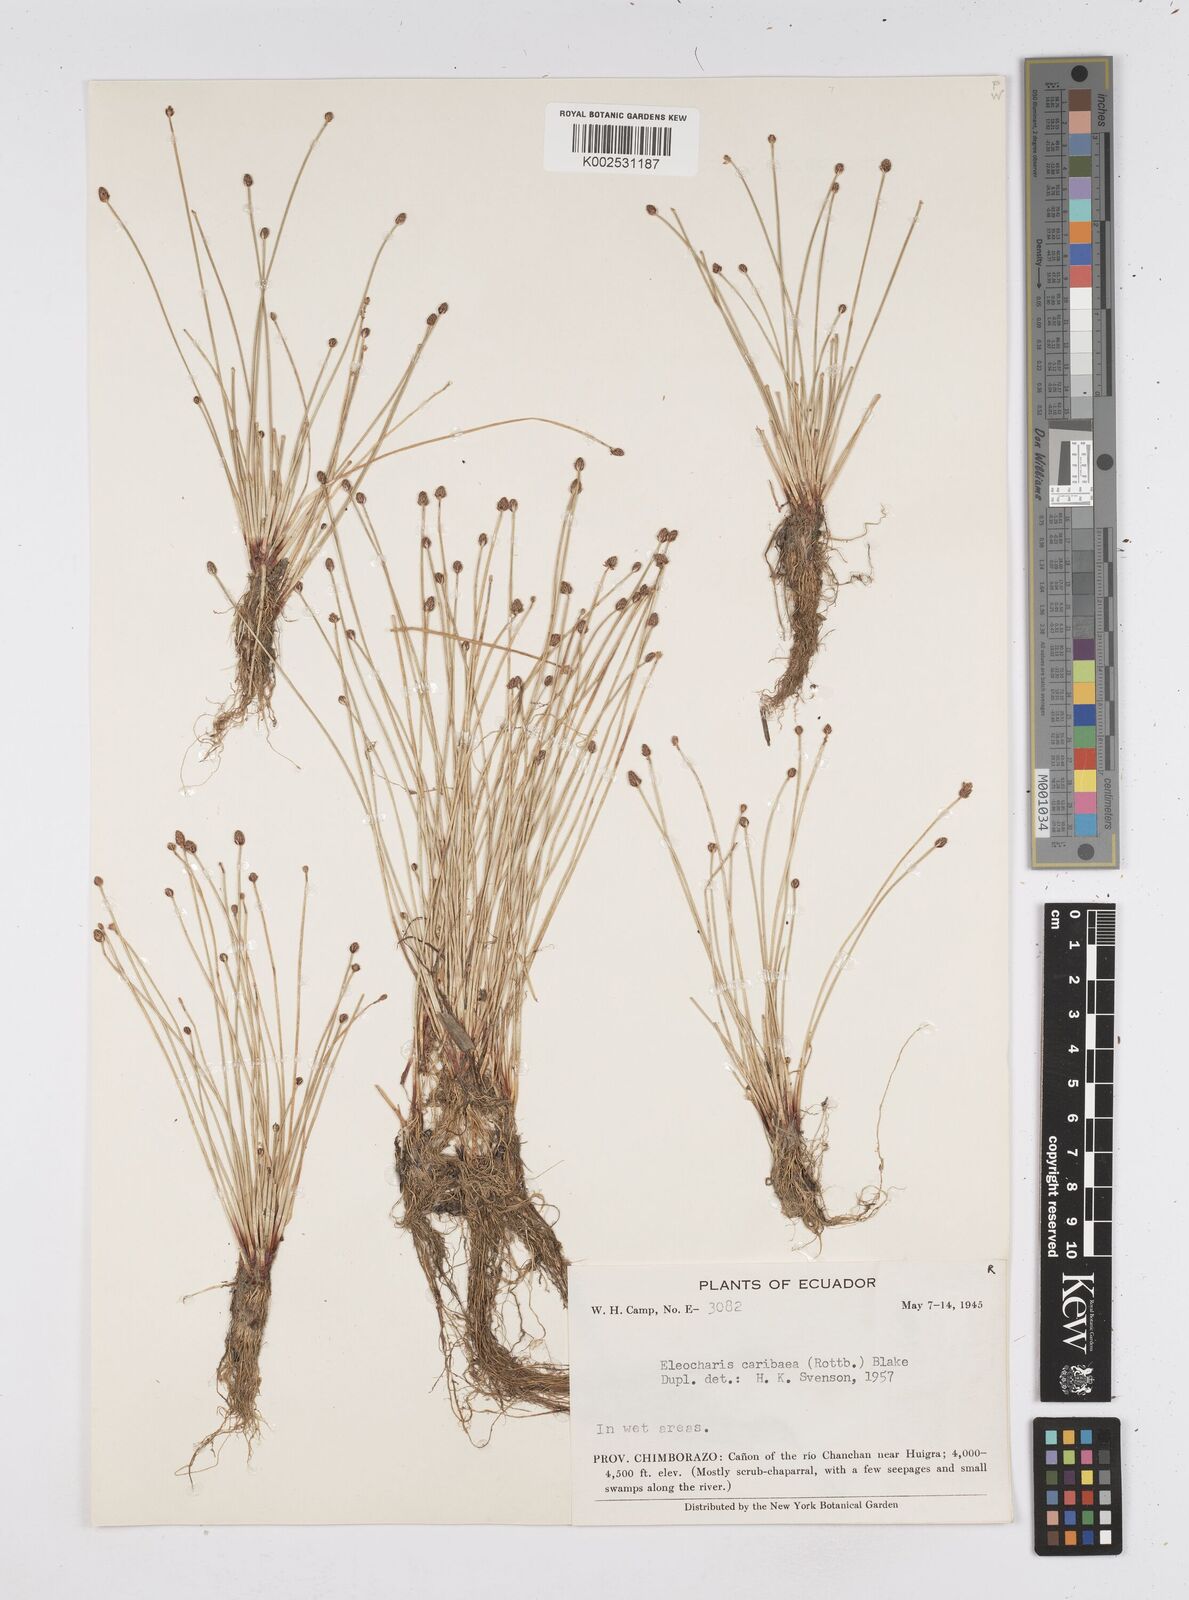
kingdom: Plantae
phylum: Tracheophyta
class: Liliopsida
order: Poales
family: Cyperaceae
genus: Eleocharis
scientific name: Eleocharis geniculata
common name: Canada spikesedge
